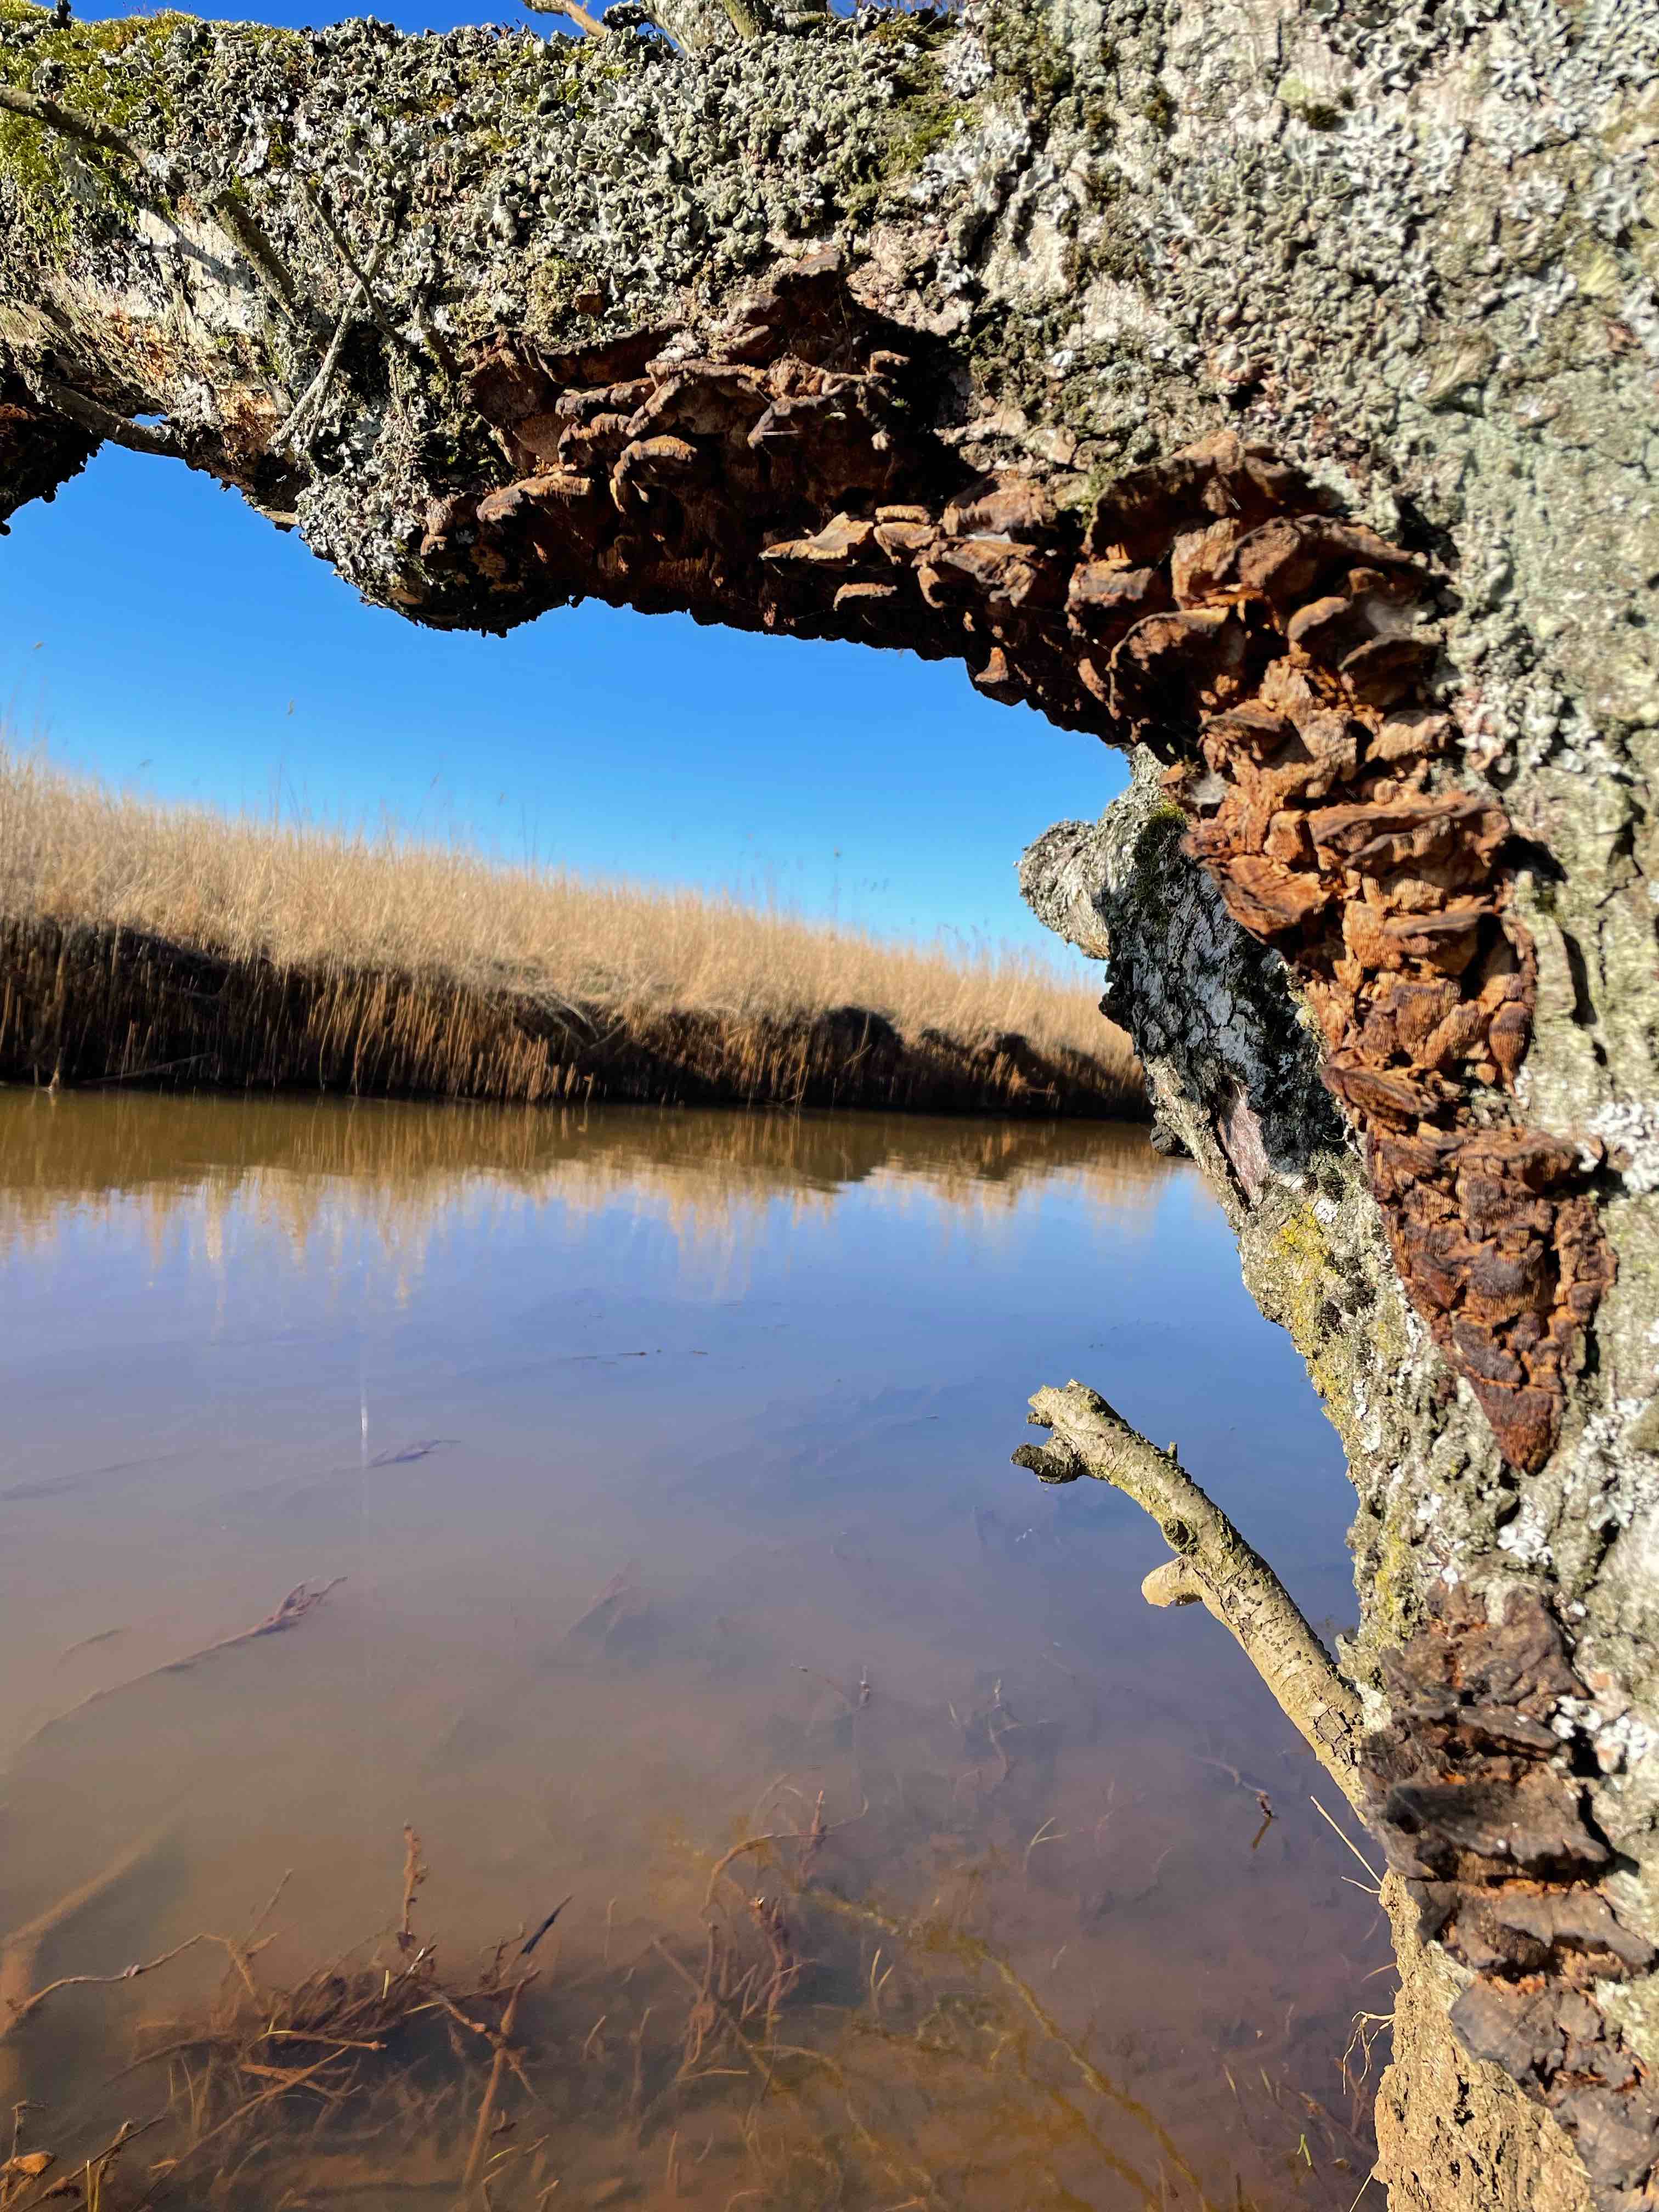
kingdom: Fungi
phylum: Basidiomycota
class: Agaricomycetes
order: Hymenochaetales
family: Hymenochaetaceae
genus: Xanthoporia
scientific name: Xanthoporia radiata
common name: elle-spejlporesvamp
